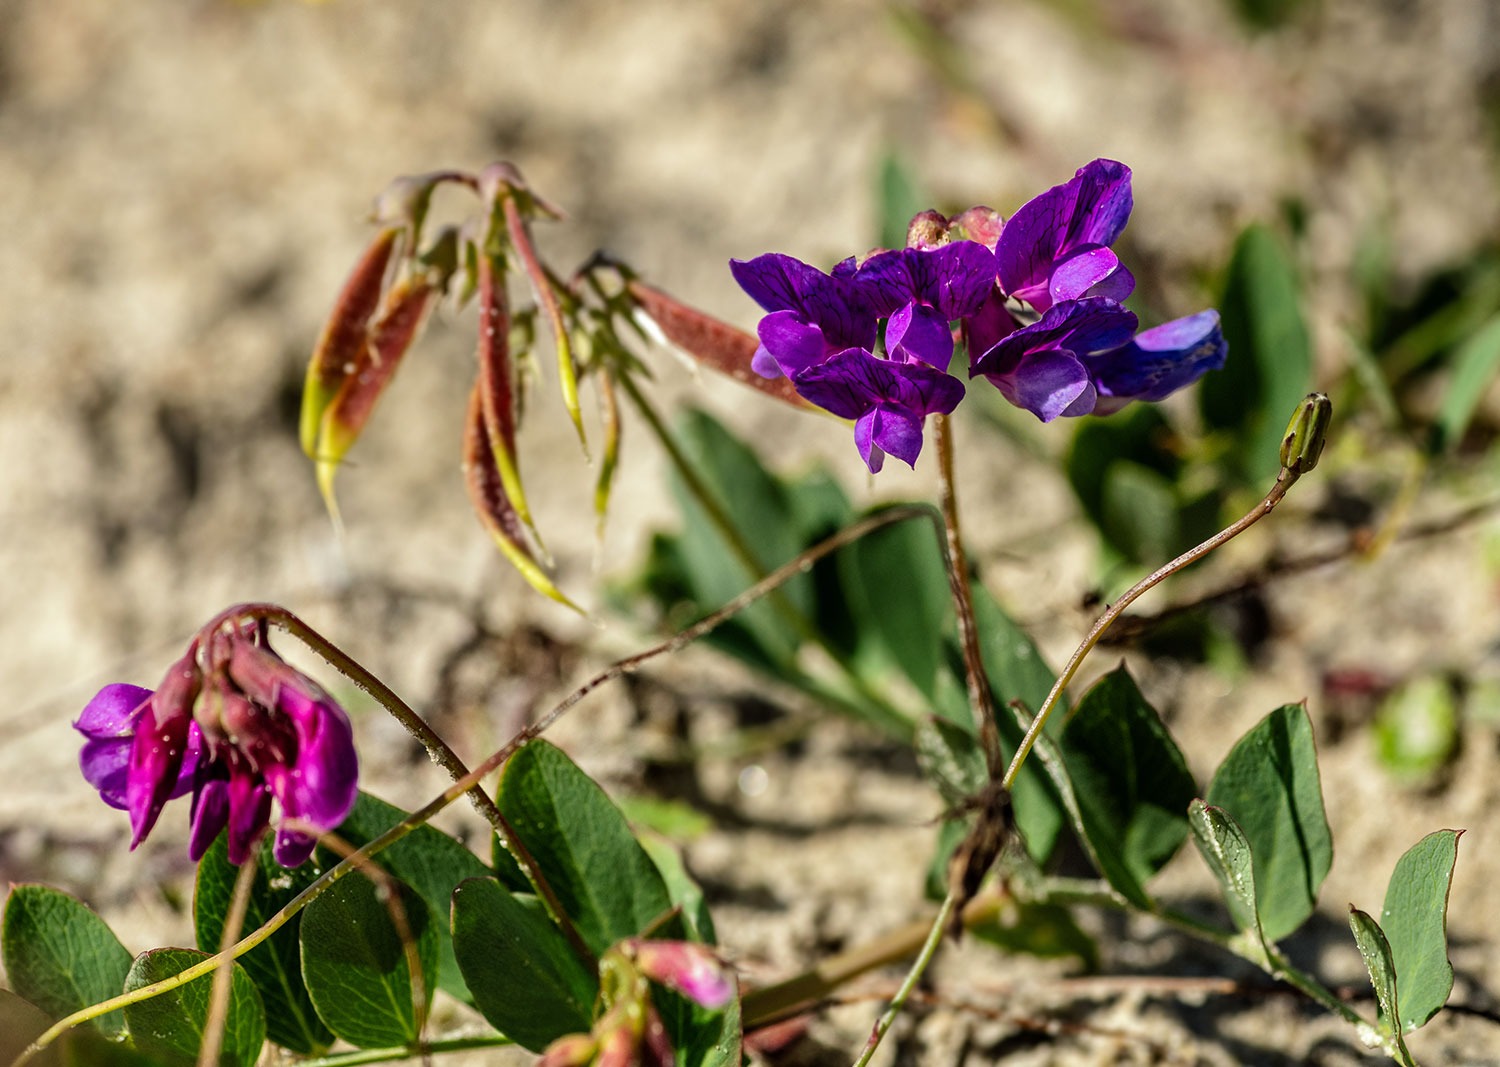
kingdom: Plantae
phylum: Tracheophyta
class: Magnoliopsida
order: Fabales
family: Fabaceae
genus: Lathyrus
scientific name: Lathyrus japonicus
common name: Klit-fladbælg
